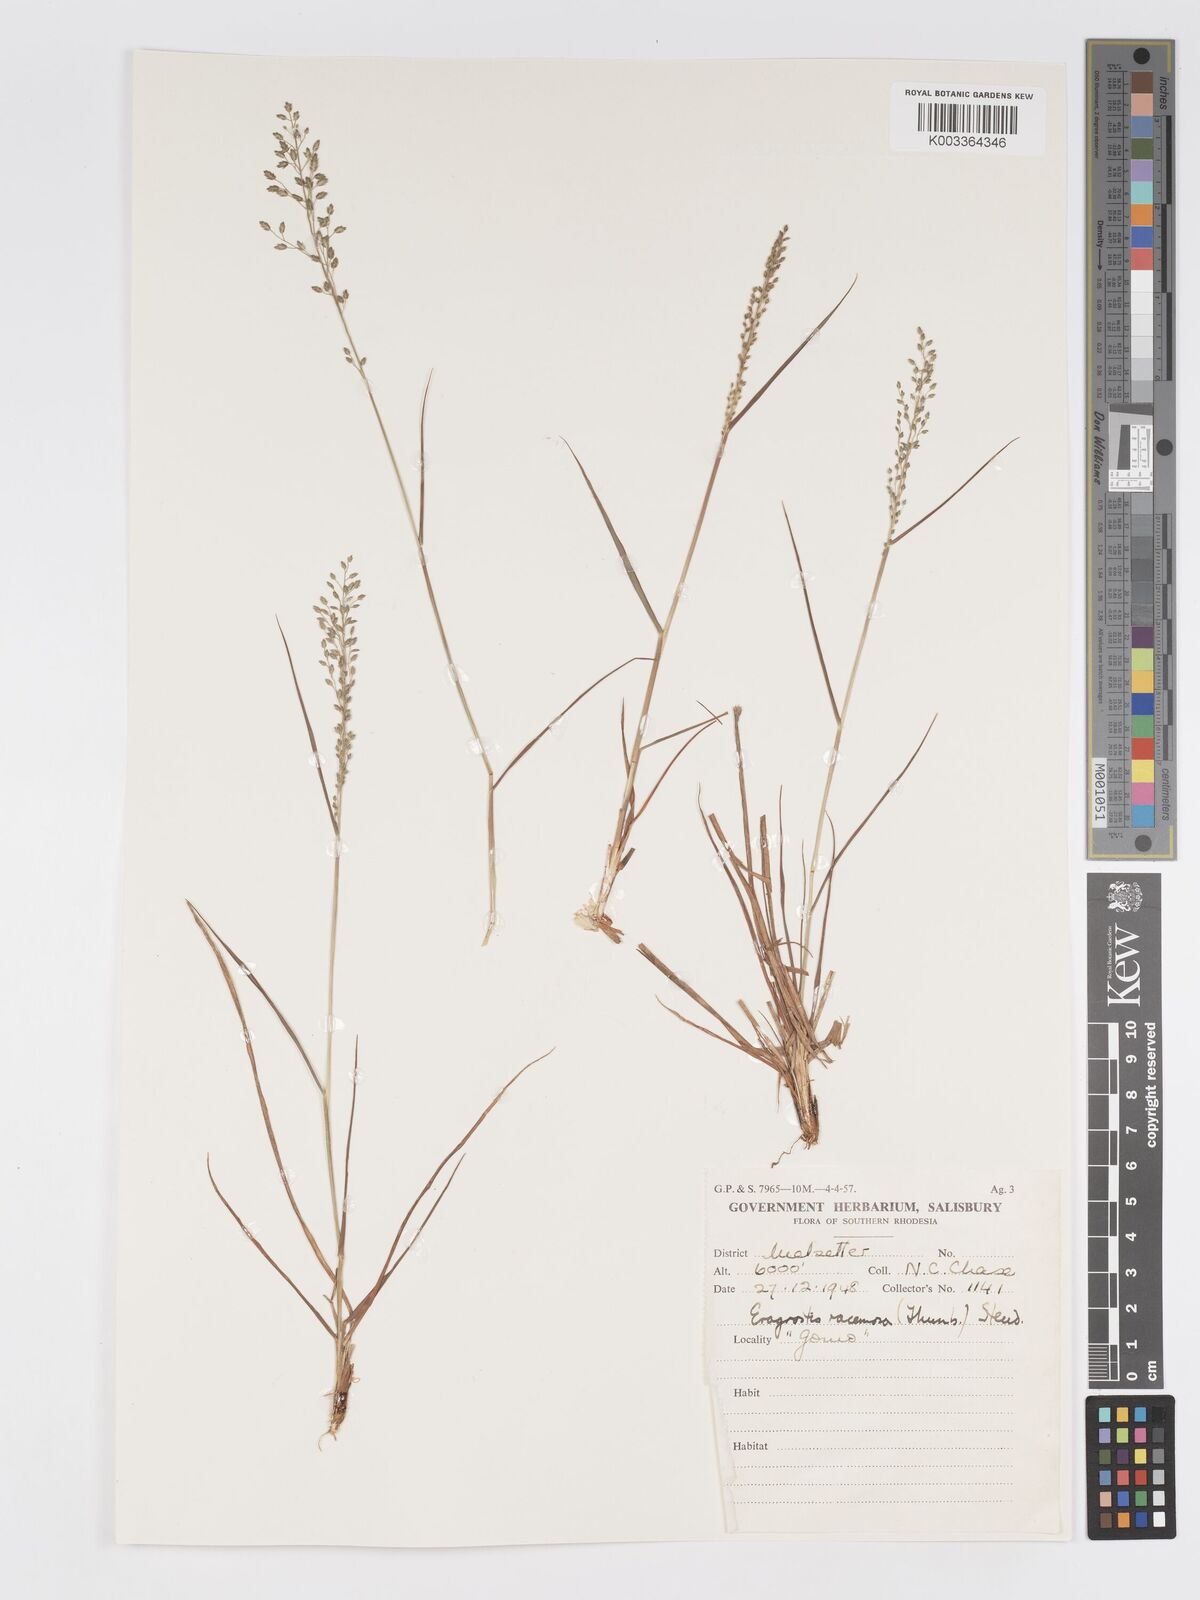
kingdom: Plantae
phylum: Tracheophyta
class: Liliopsida
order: Poales
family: Poaceae
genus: Eragrostis
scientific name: Eragrostis racemosa
